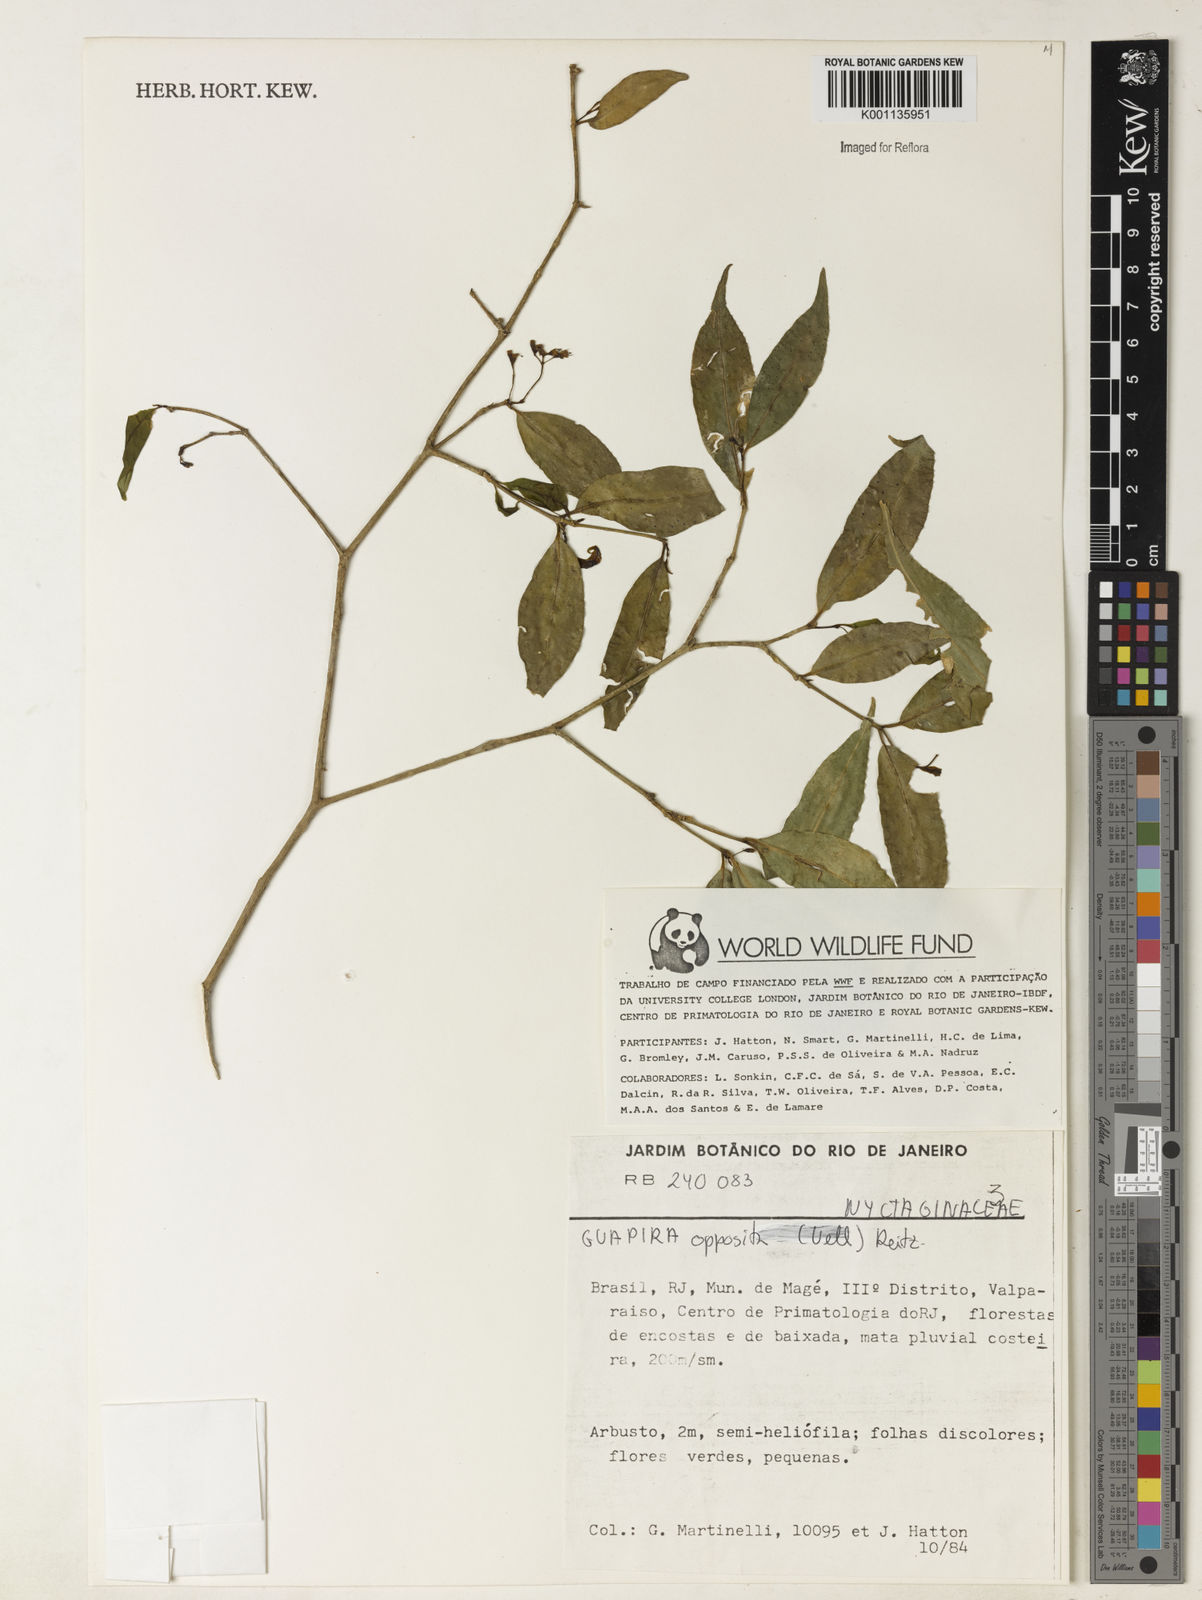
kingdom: Plantae
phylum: Tracheophyta
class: Magnoliopsida
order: Caryophyllales
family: Nyctaginaceae
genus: Guapira
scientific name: Guapira opposita
